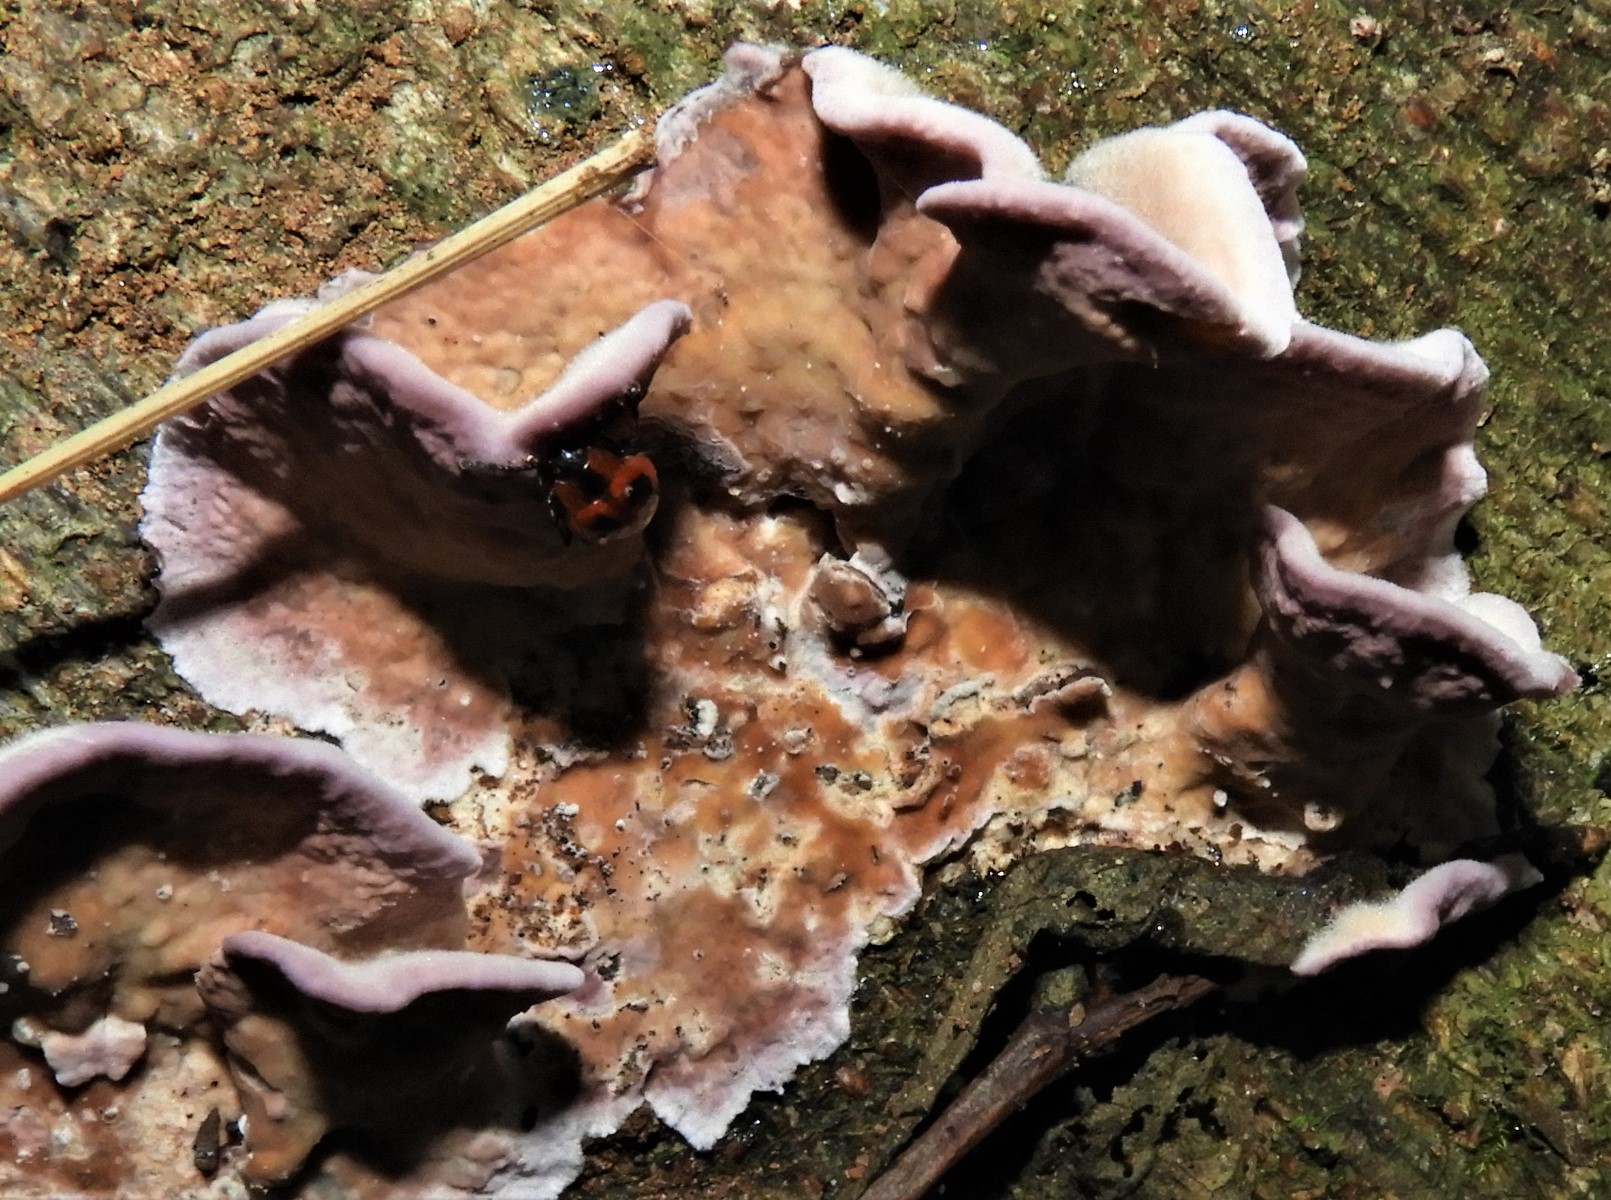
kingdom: Fungi
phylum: Basidiomycota
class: Agaricomycetes
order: Agaricales
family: Cyphellaceae
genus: Chondrostereum
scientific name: Chondrostereum purpureum
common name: purpurlædersvamp
